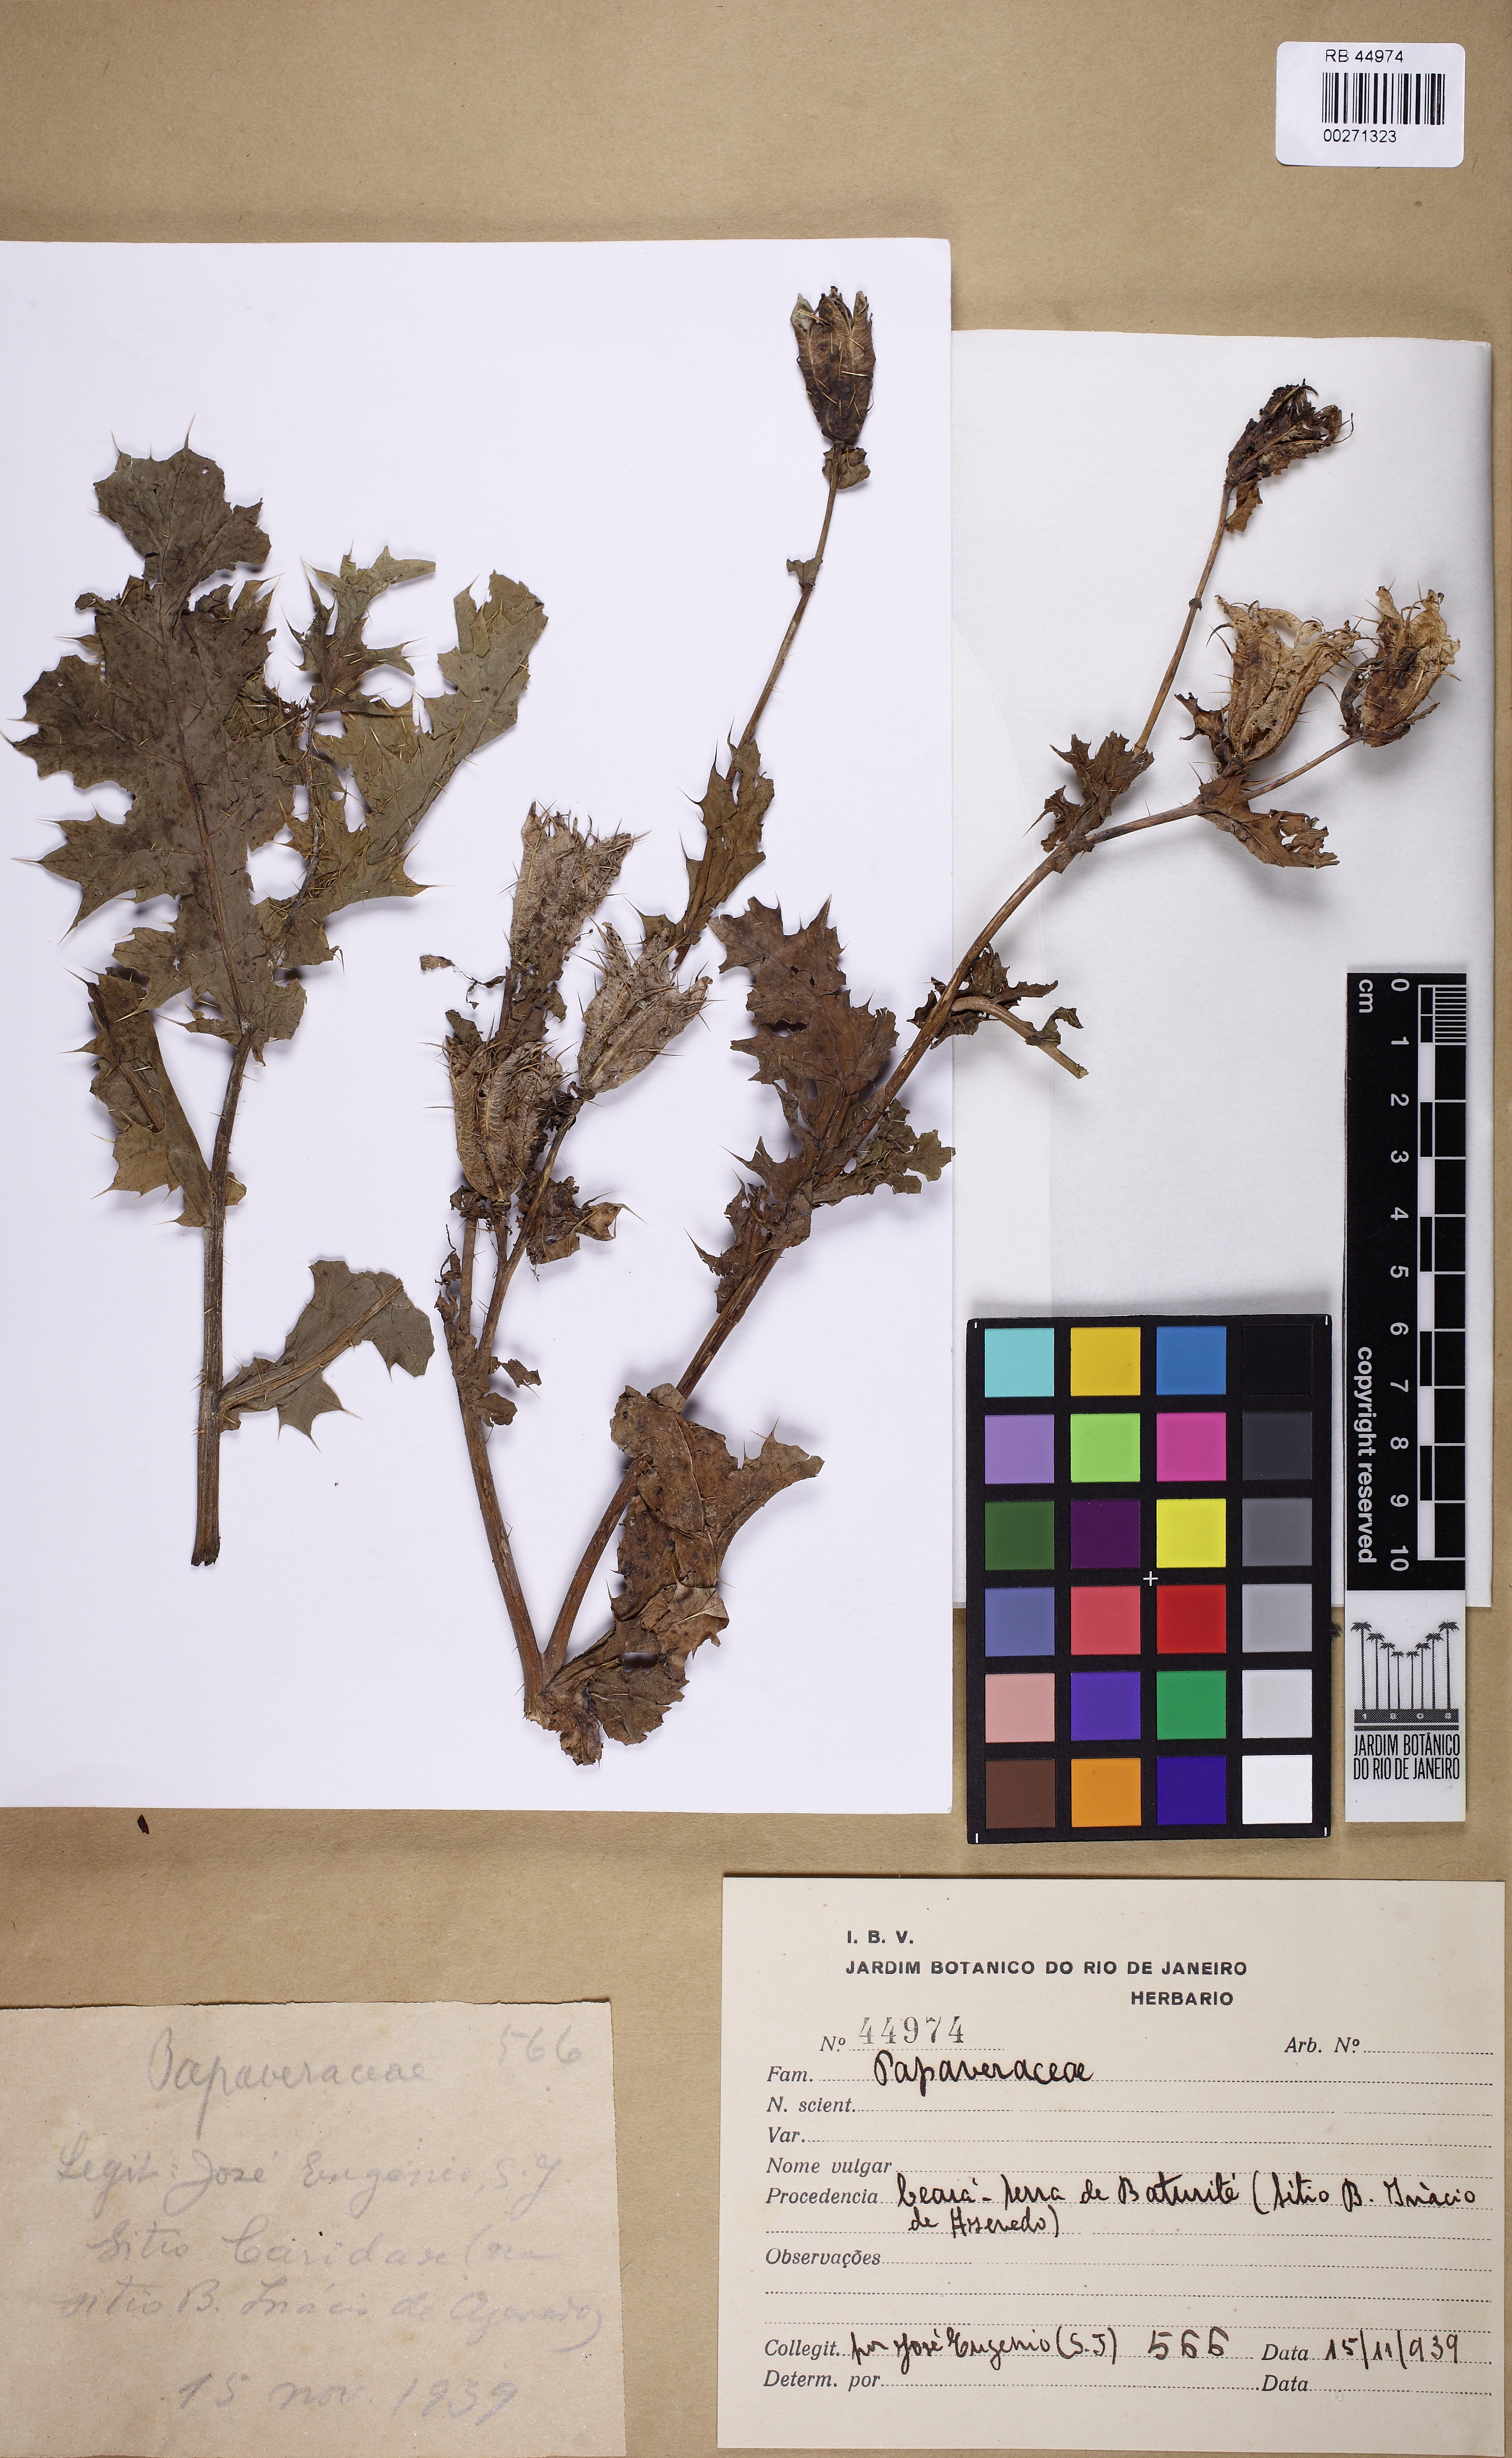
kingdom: Plantae
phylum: Tracheophyta
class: Magnoliopsida
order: Ranunculales
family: Papaveraceae
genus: Argemone
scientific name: Argemone mexicana
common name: Mexican poppy
